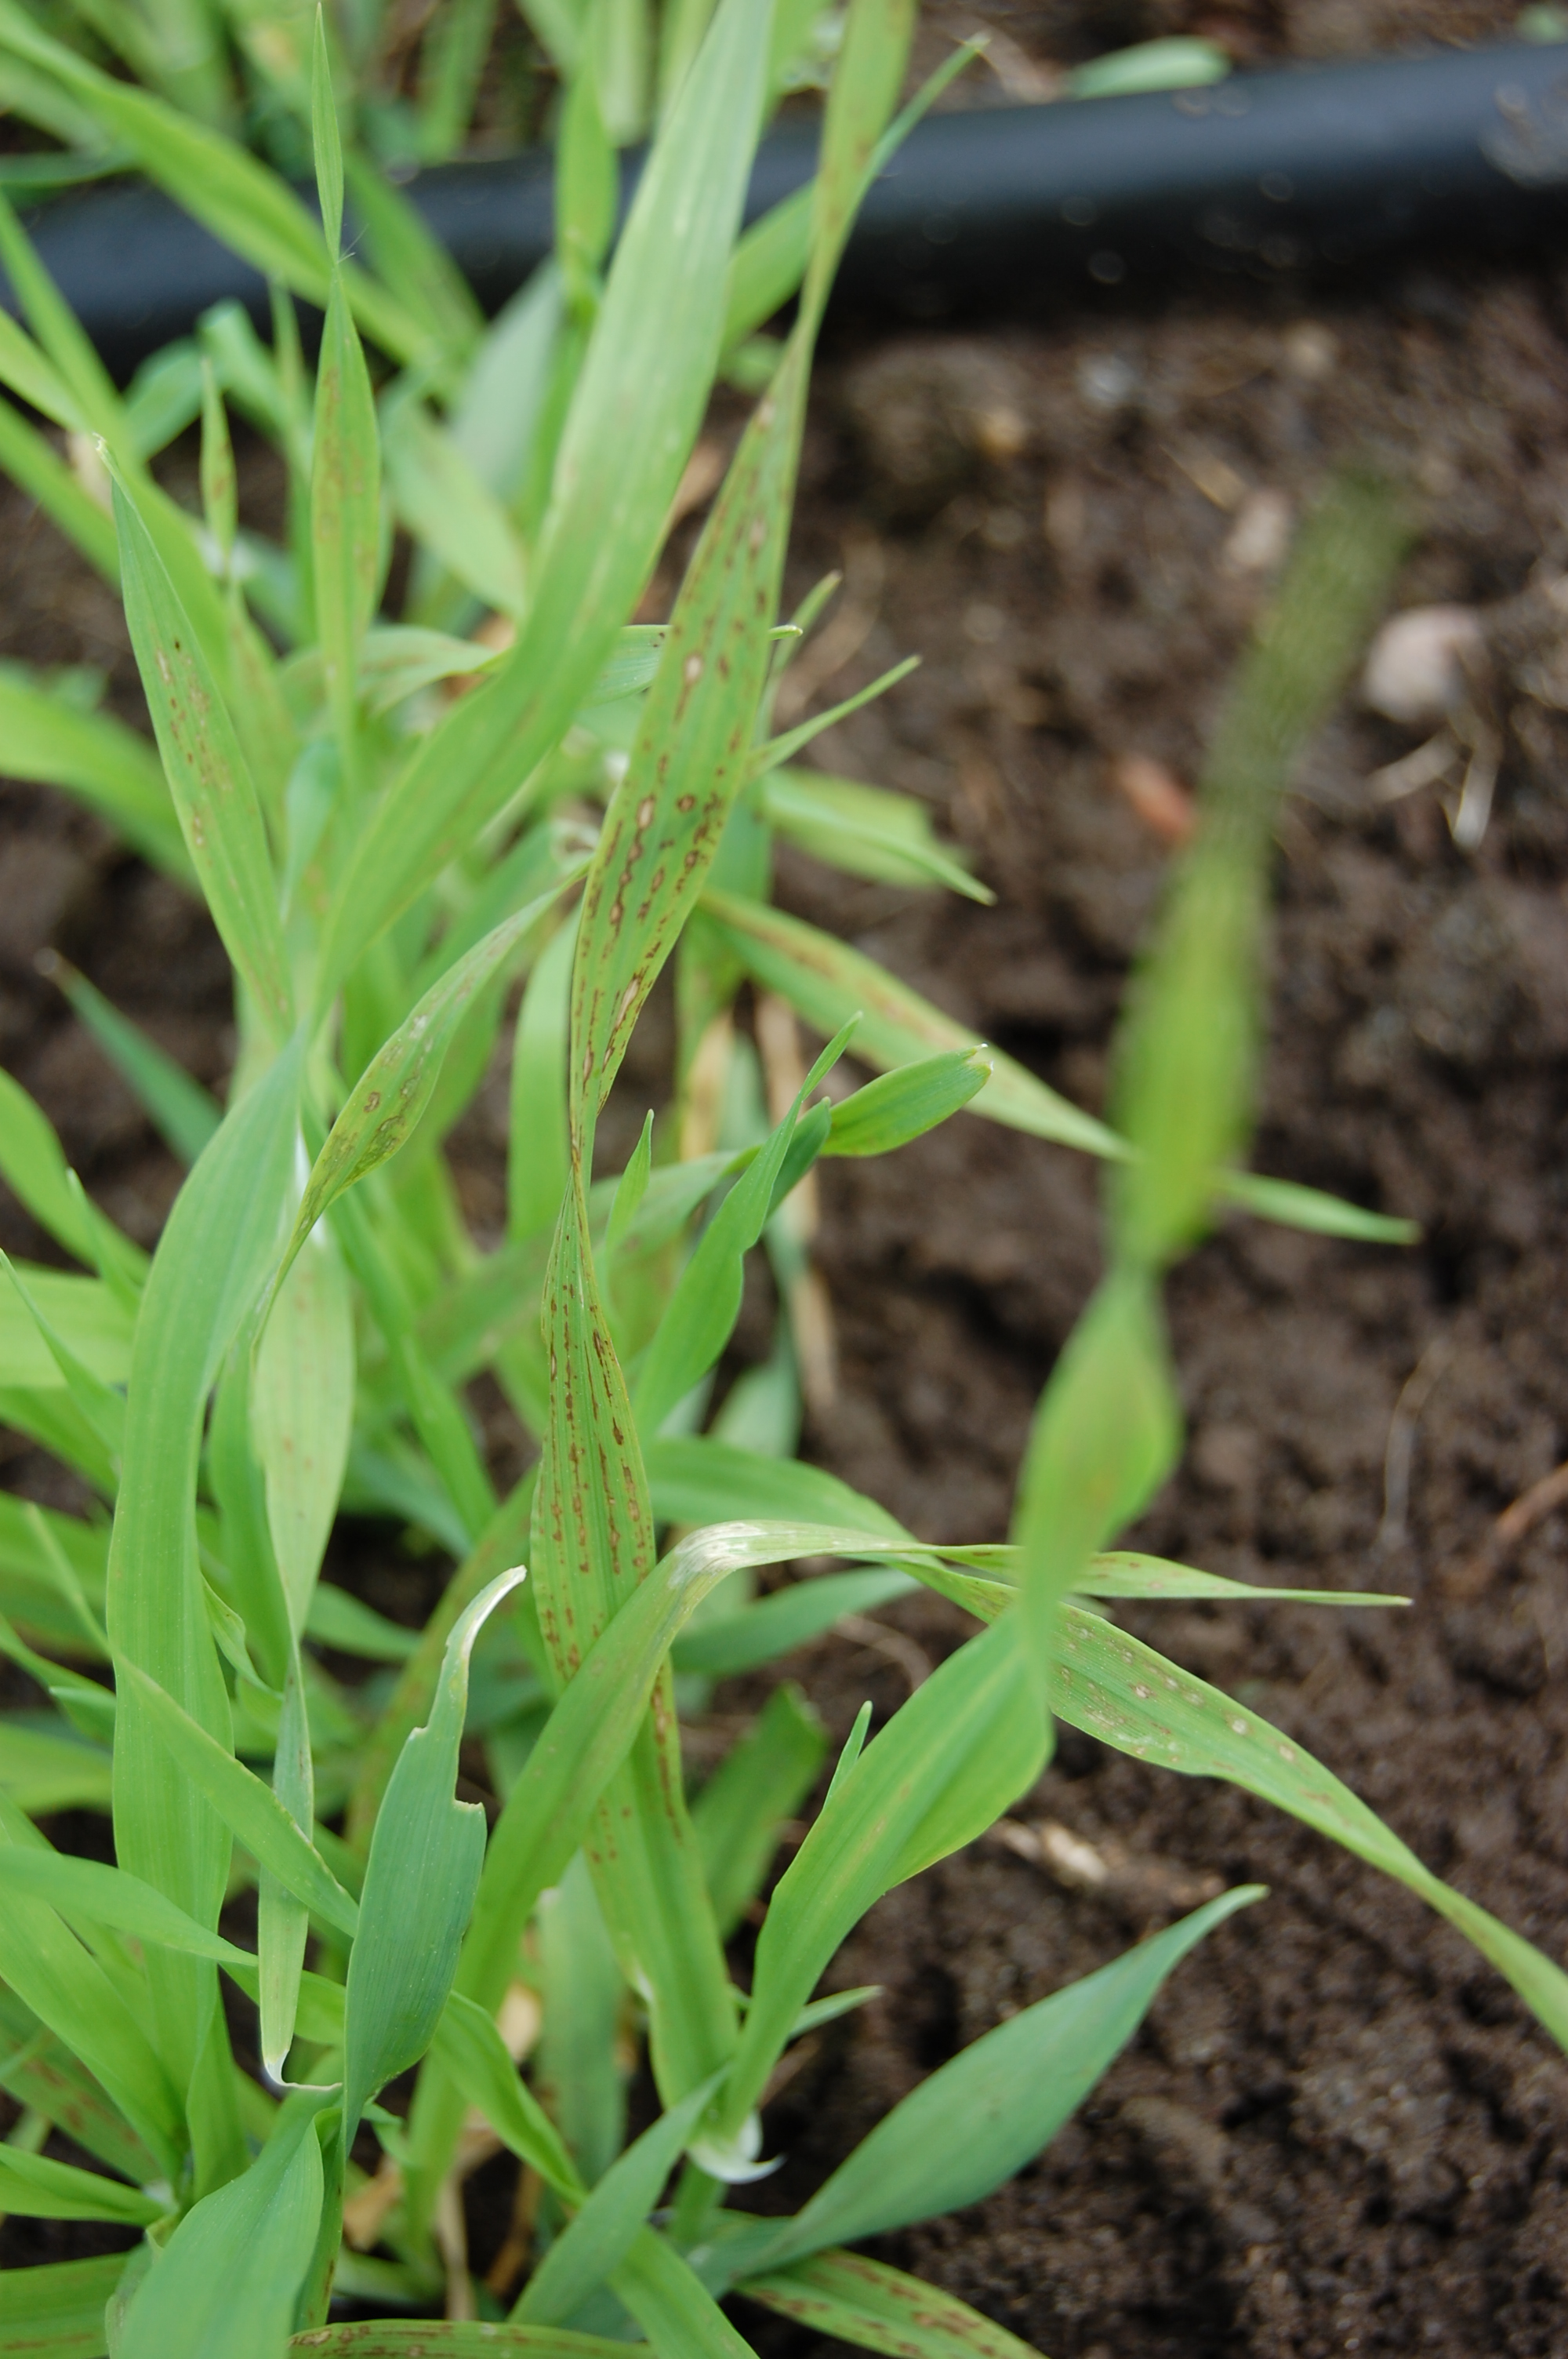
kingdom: Plantae
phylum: Tracheophyta
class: Liliopsida
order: Poales
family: Poaceae
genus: Hordeum
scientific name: Hordeum vulgare
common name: Common barley
